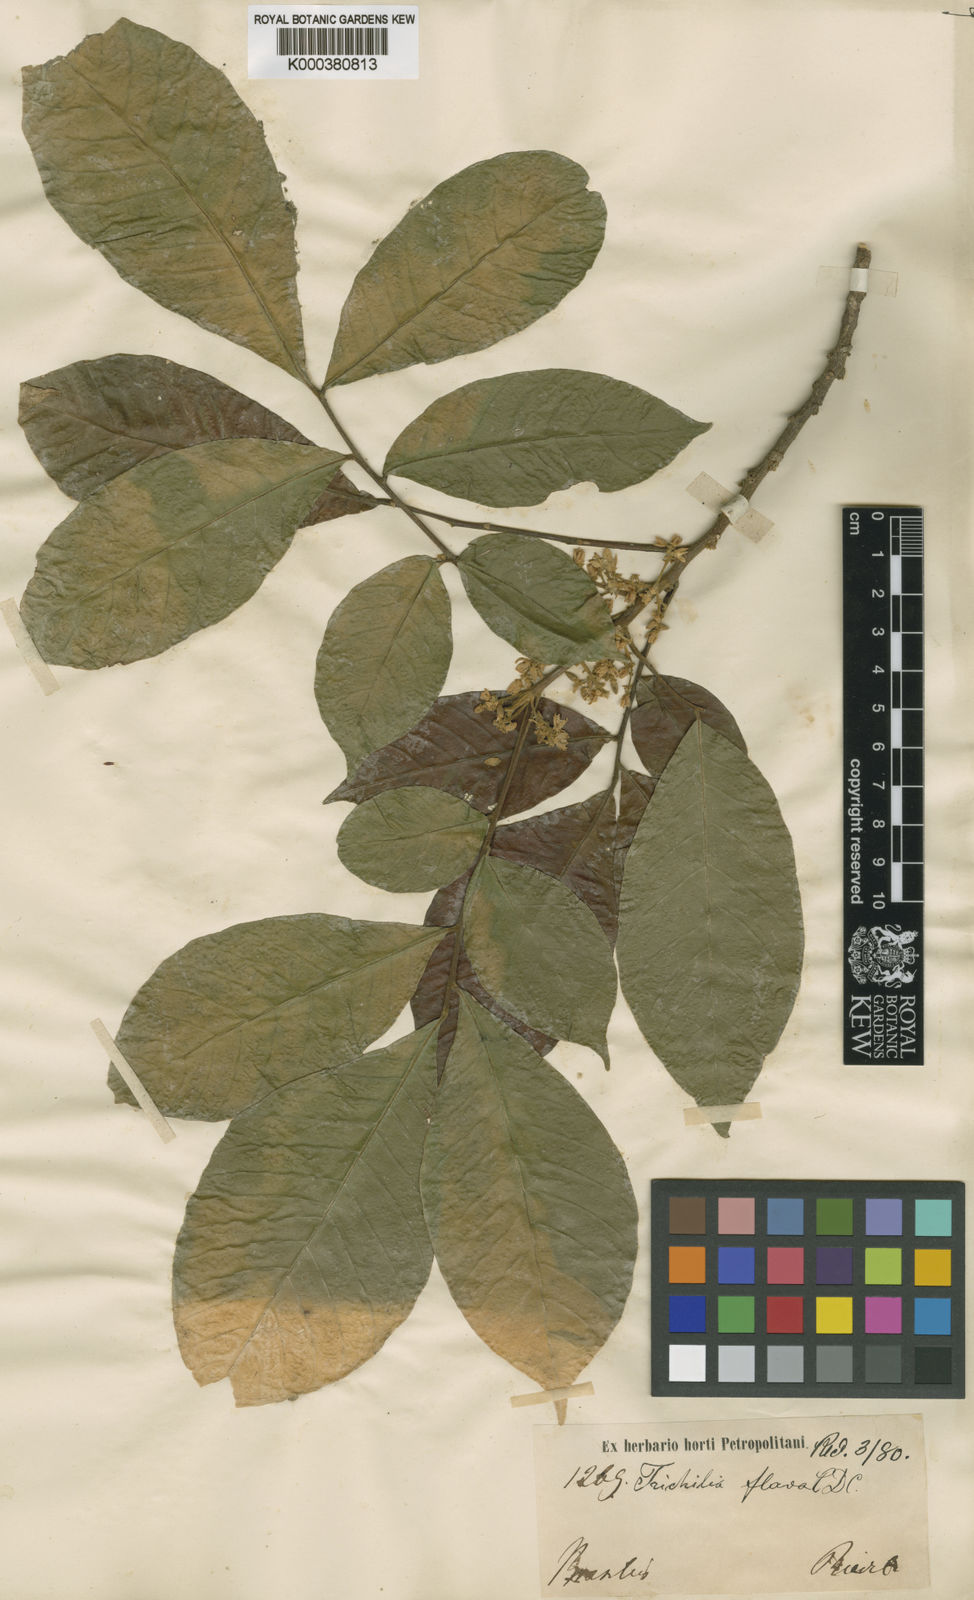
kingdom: Plantae
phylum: Tracheophyta
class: Magnoliopsida
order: Sapindales
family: Meliaceae
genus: Trichilia
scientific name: Trichilia pallida
